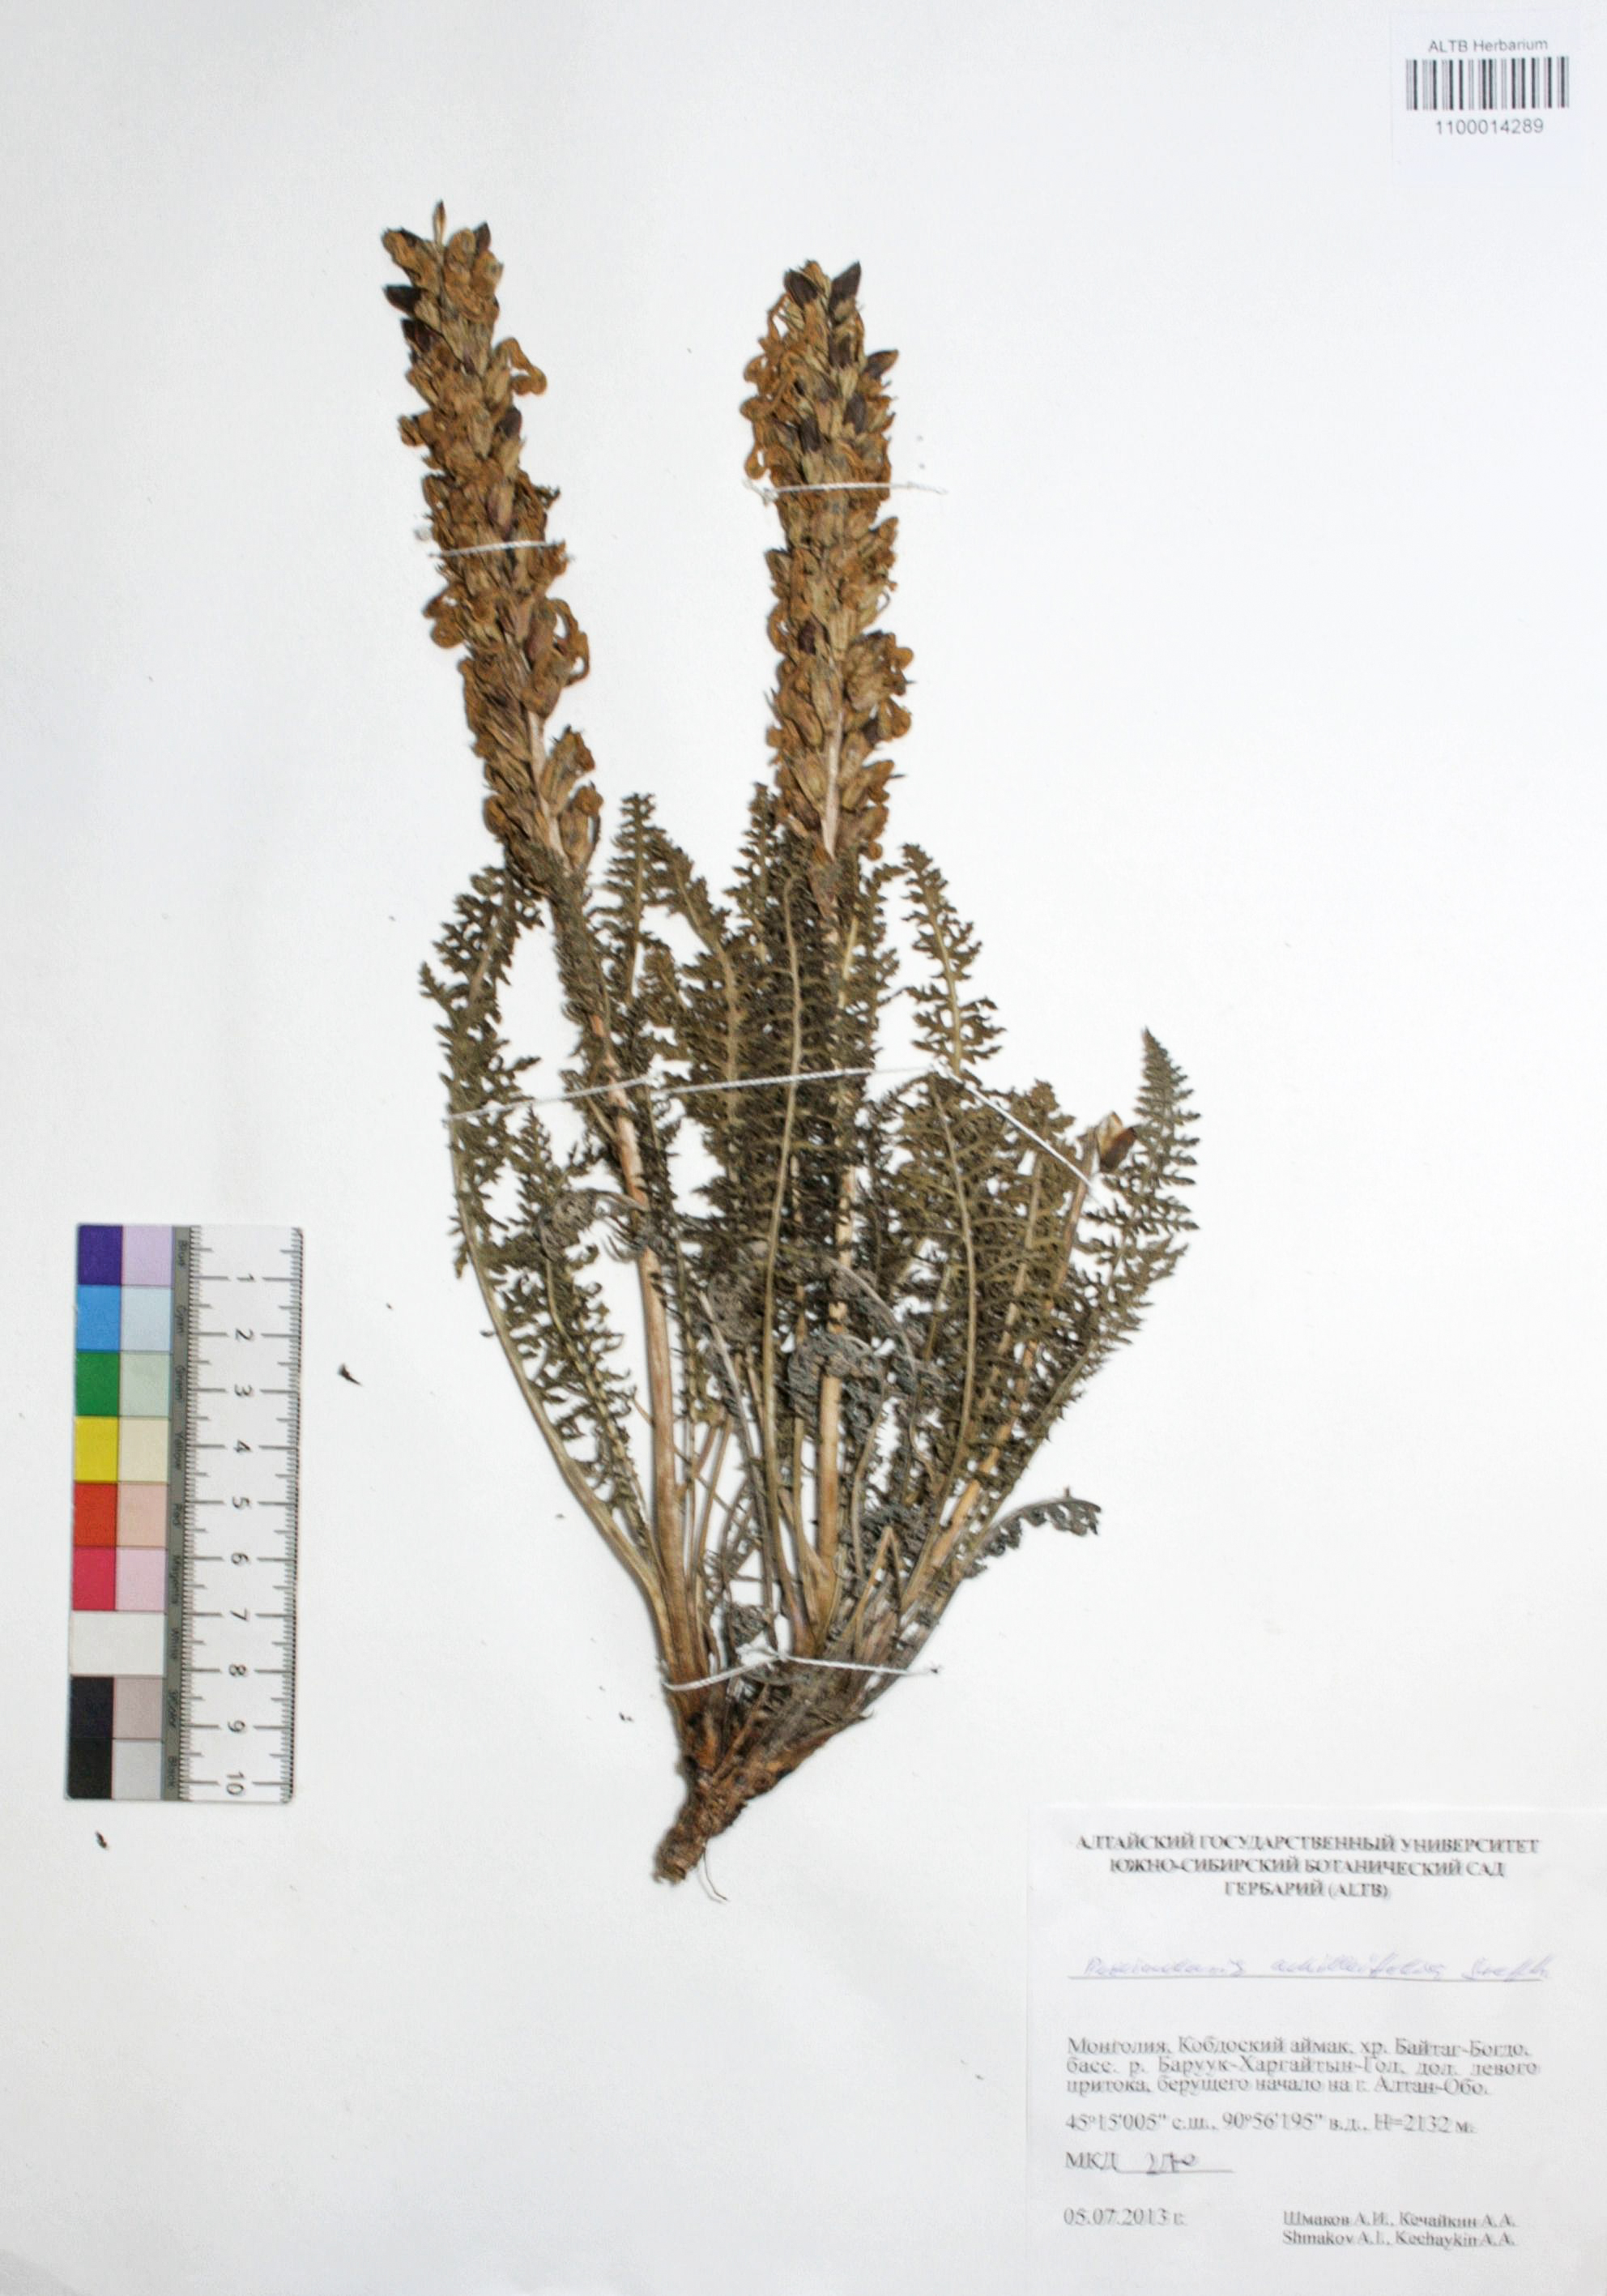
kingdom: Plantae
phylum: Tracheophyta
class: Magnoliopsida
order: Lamiales
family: Orobanchaceae
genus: Pedicularis
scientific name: Pedicularis achilleifolia
